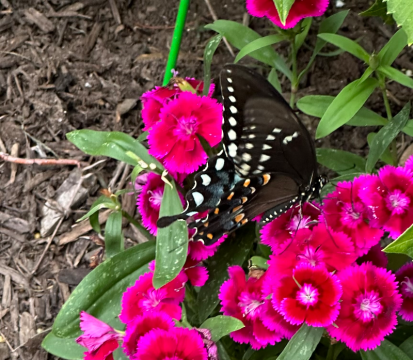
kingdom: Animalia
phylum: Arthropoda
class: Insecta
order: Lepidoptera
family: Papilionidae
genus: Pterourus
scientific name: Pterourus troilus
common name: Spicebush Swallowtail
